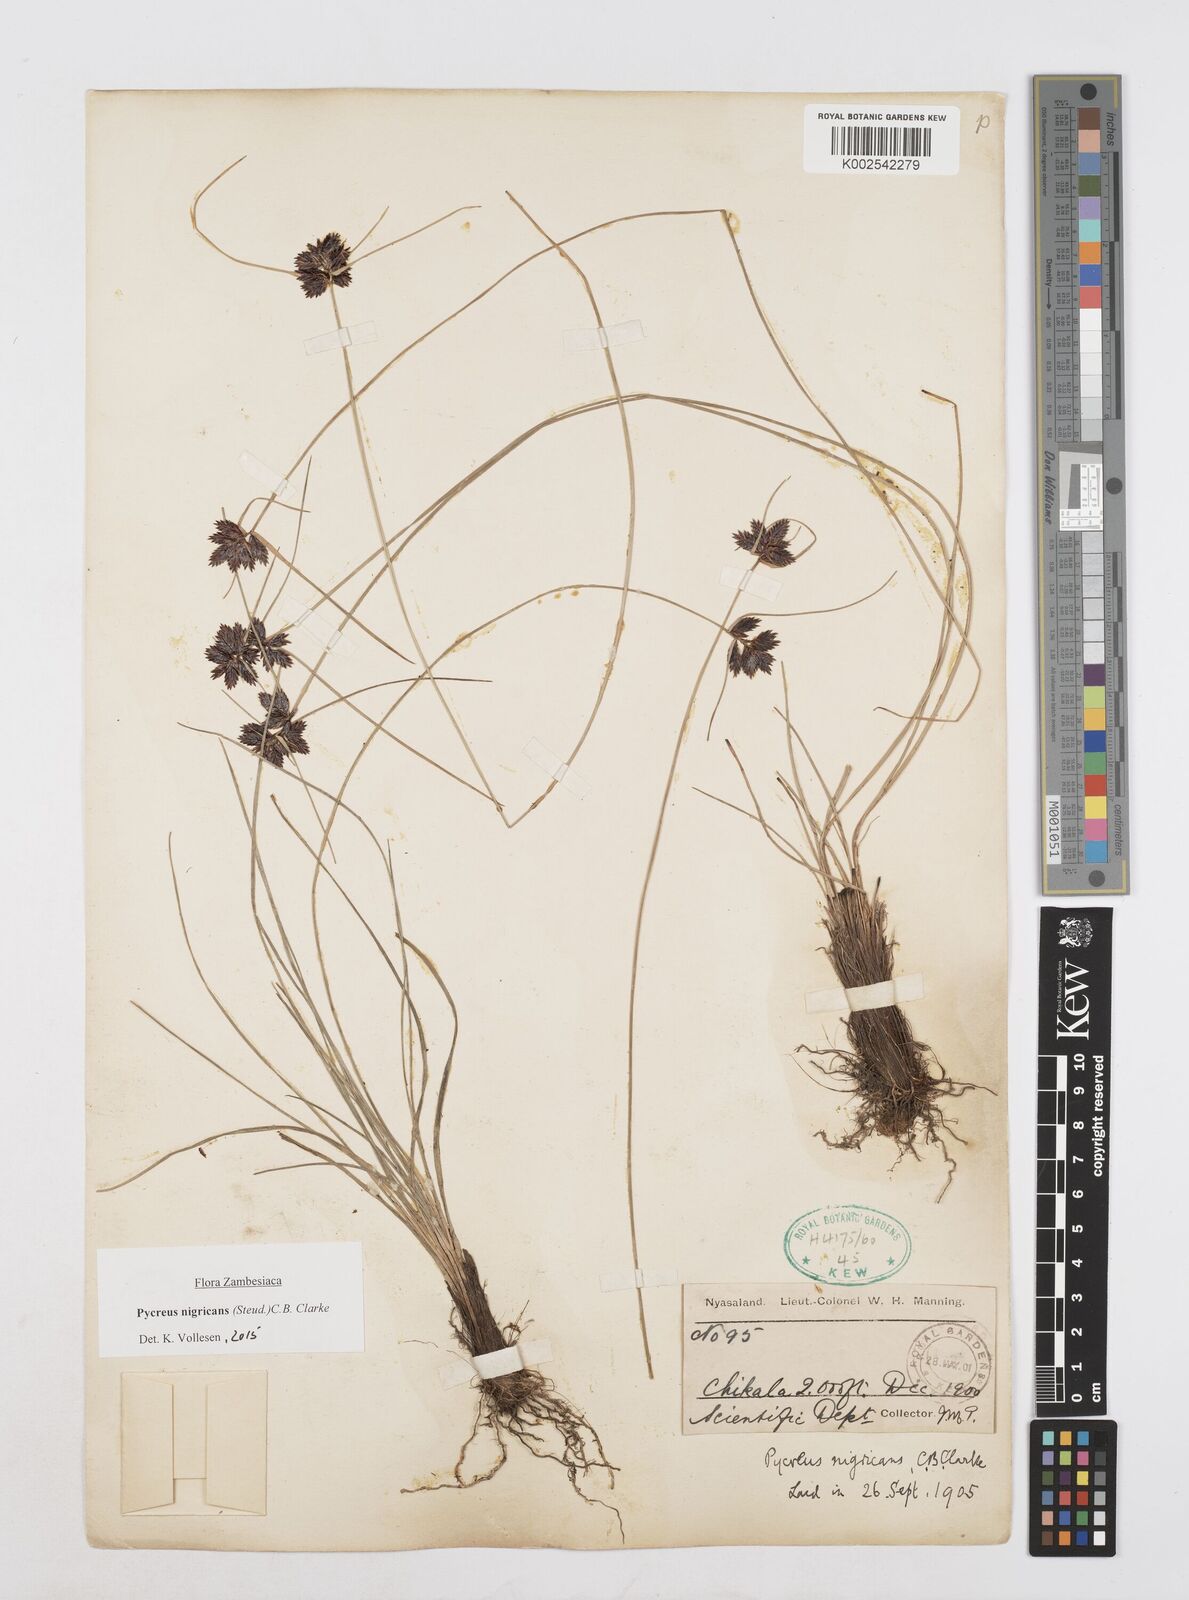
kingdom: Plantae
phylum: Tracheophyta
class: Liliopsida
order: Poales
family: Cyperaceae
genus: Cyperus
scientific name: Cyperus nigricans
